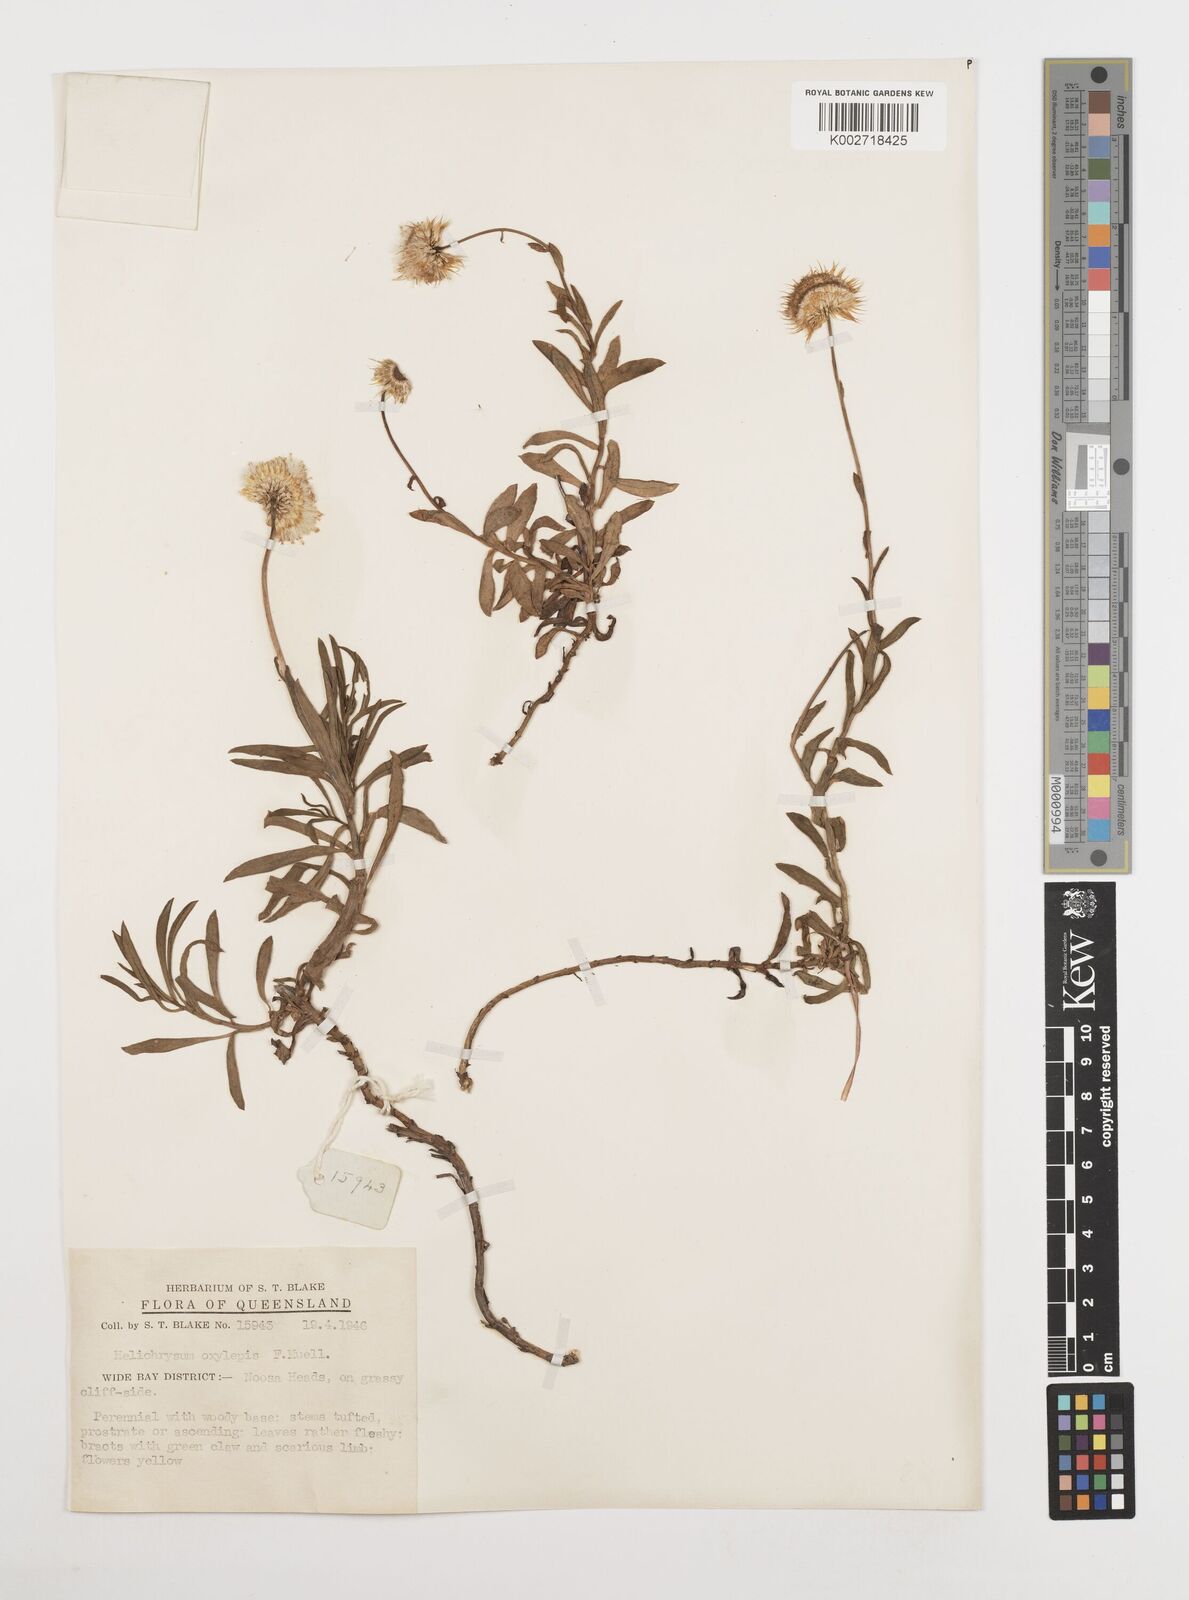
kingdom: Plantae
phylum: Tracheophyta
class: Magnoliopsida
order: Asterales
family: Asteraceae
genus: Coronidium
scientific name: Coronidium oxylepis
